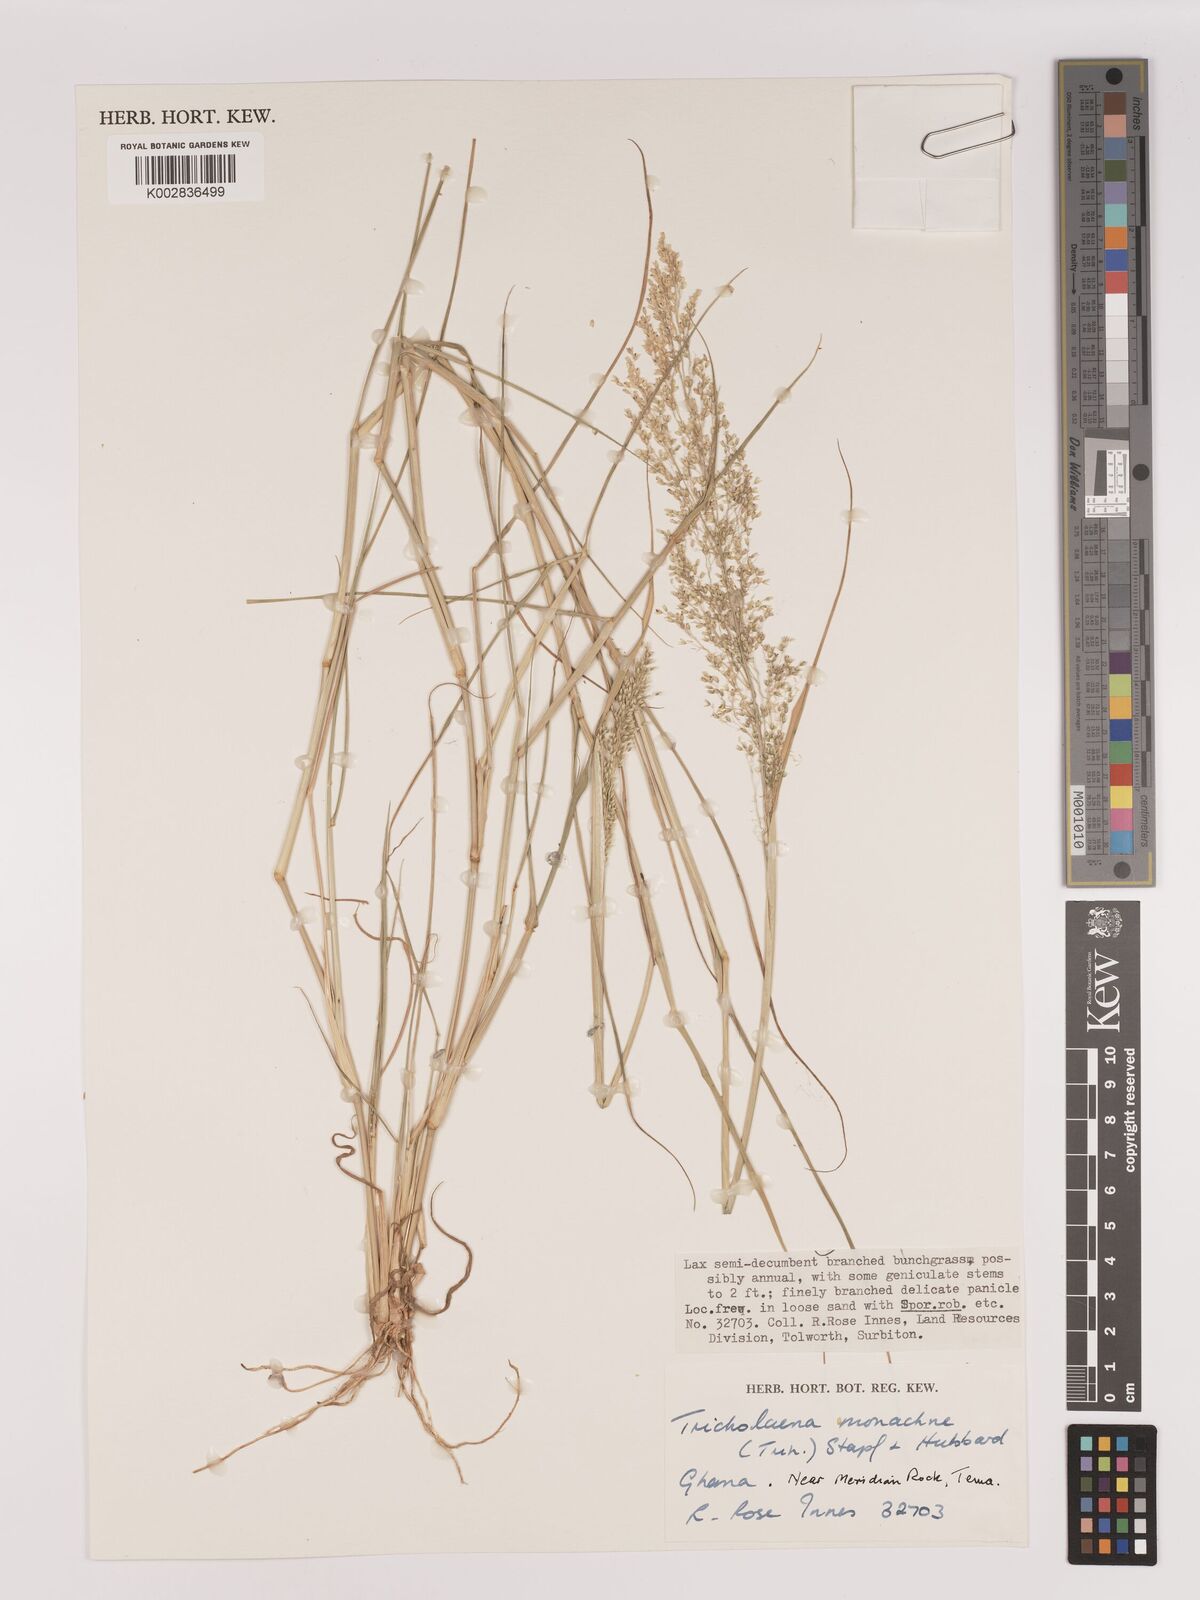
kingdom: Plantae
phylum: Tracheophyta
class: Liliopsida
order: Poales
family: Poaceae
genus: Tricholaena
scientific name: Tricholaena monachne
